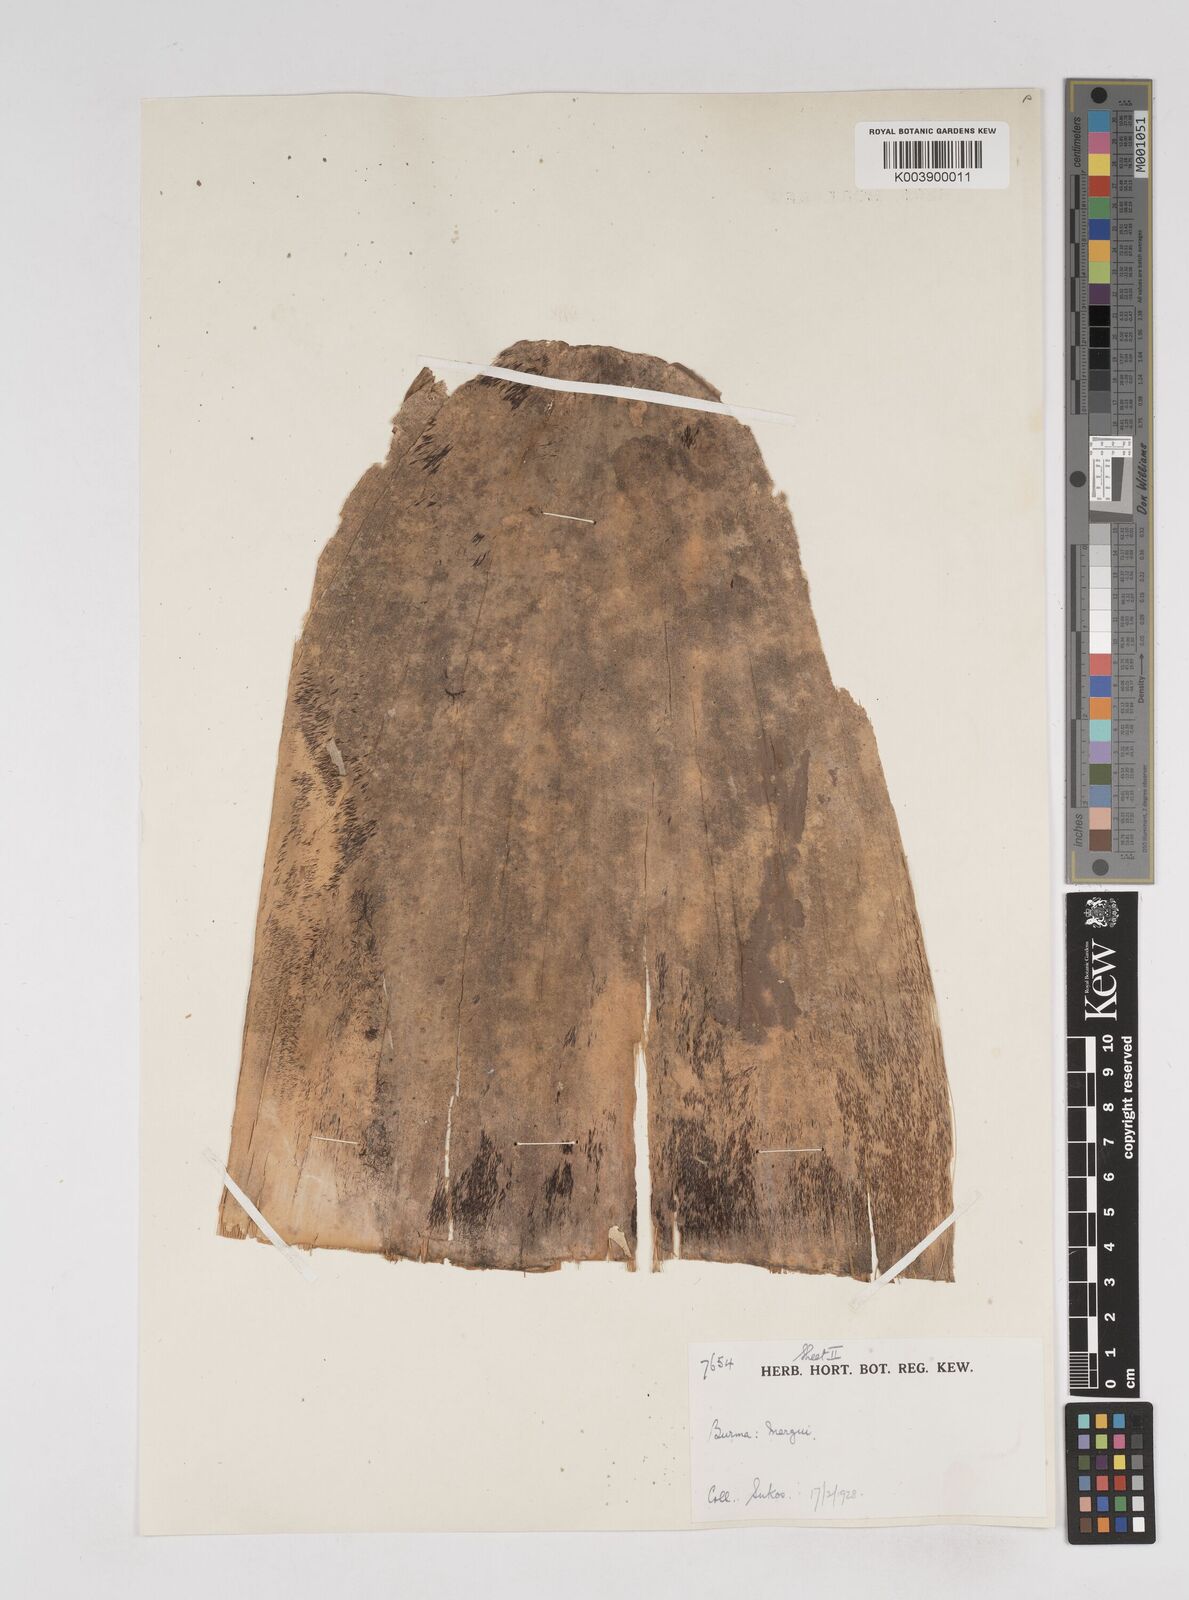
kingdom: Plantae
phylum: Tracheophyta
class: Liliopsida
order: Poales
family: Poaceae
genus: Gigantochloa
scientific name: Gigantochloa
